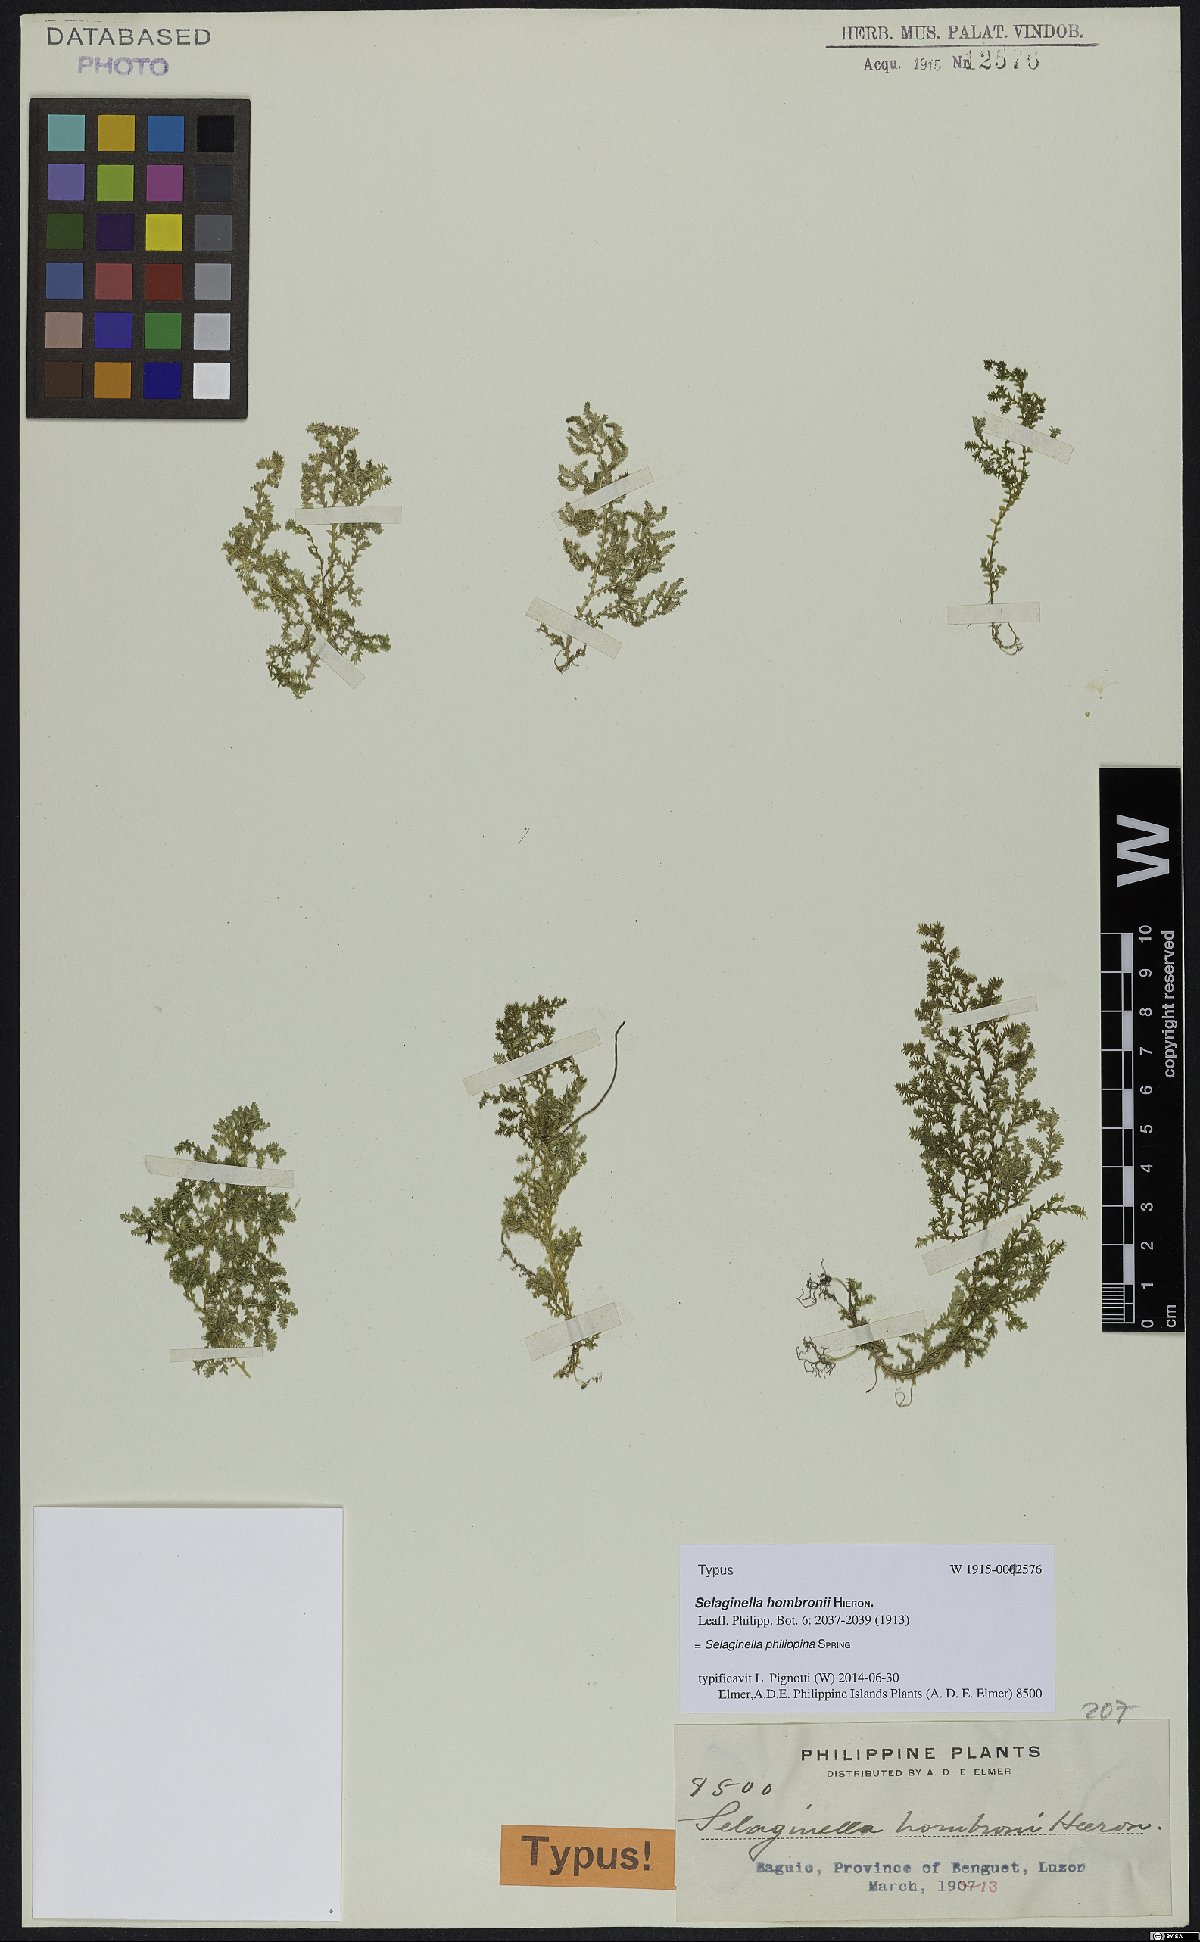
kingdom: Plantae
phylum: Tracheophyta
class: Lycopodiopsida
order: Selaginellales
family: Selaginellaceae
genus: Selaginella
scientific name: Selaginella philippsiana
